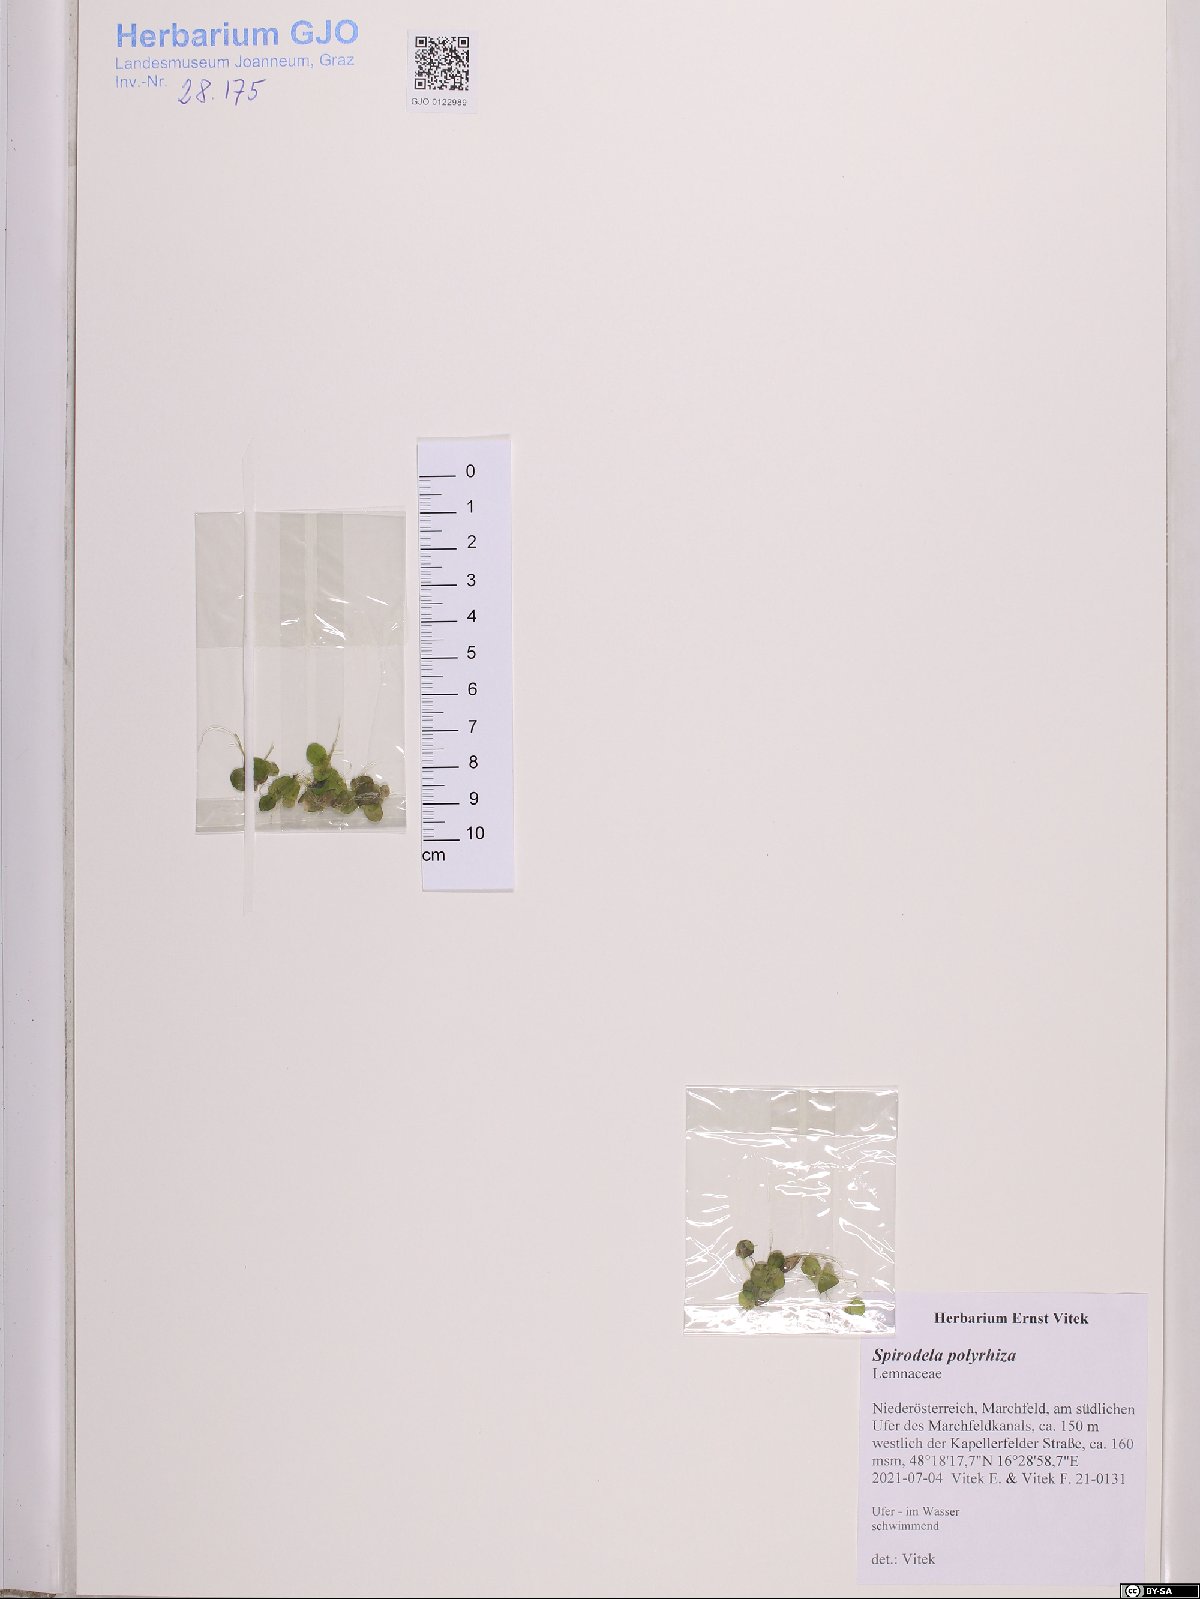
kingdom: Plantae
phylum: Tracheophyta
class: Liliopsida
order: Alismatales
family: Araceae
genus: Spirodela
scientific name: Spirodela polyrhiza
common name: Great duckweed
